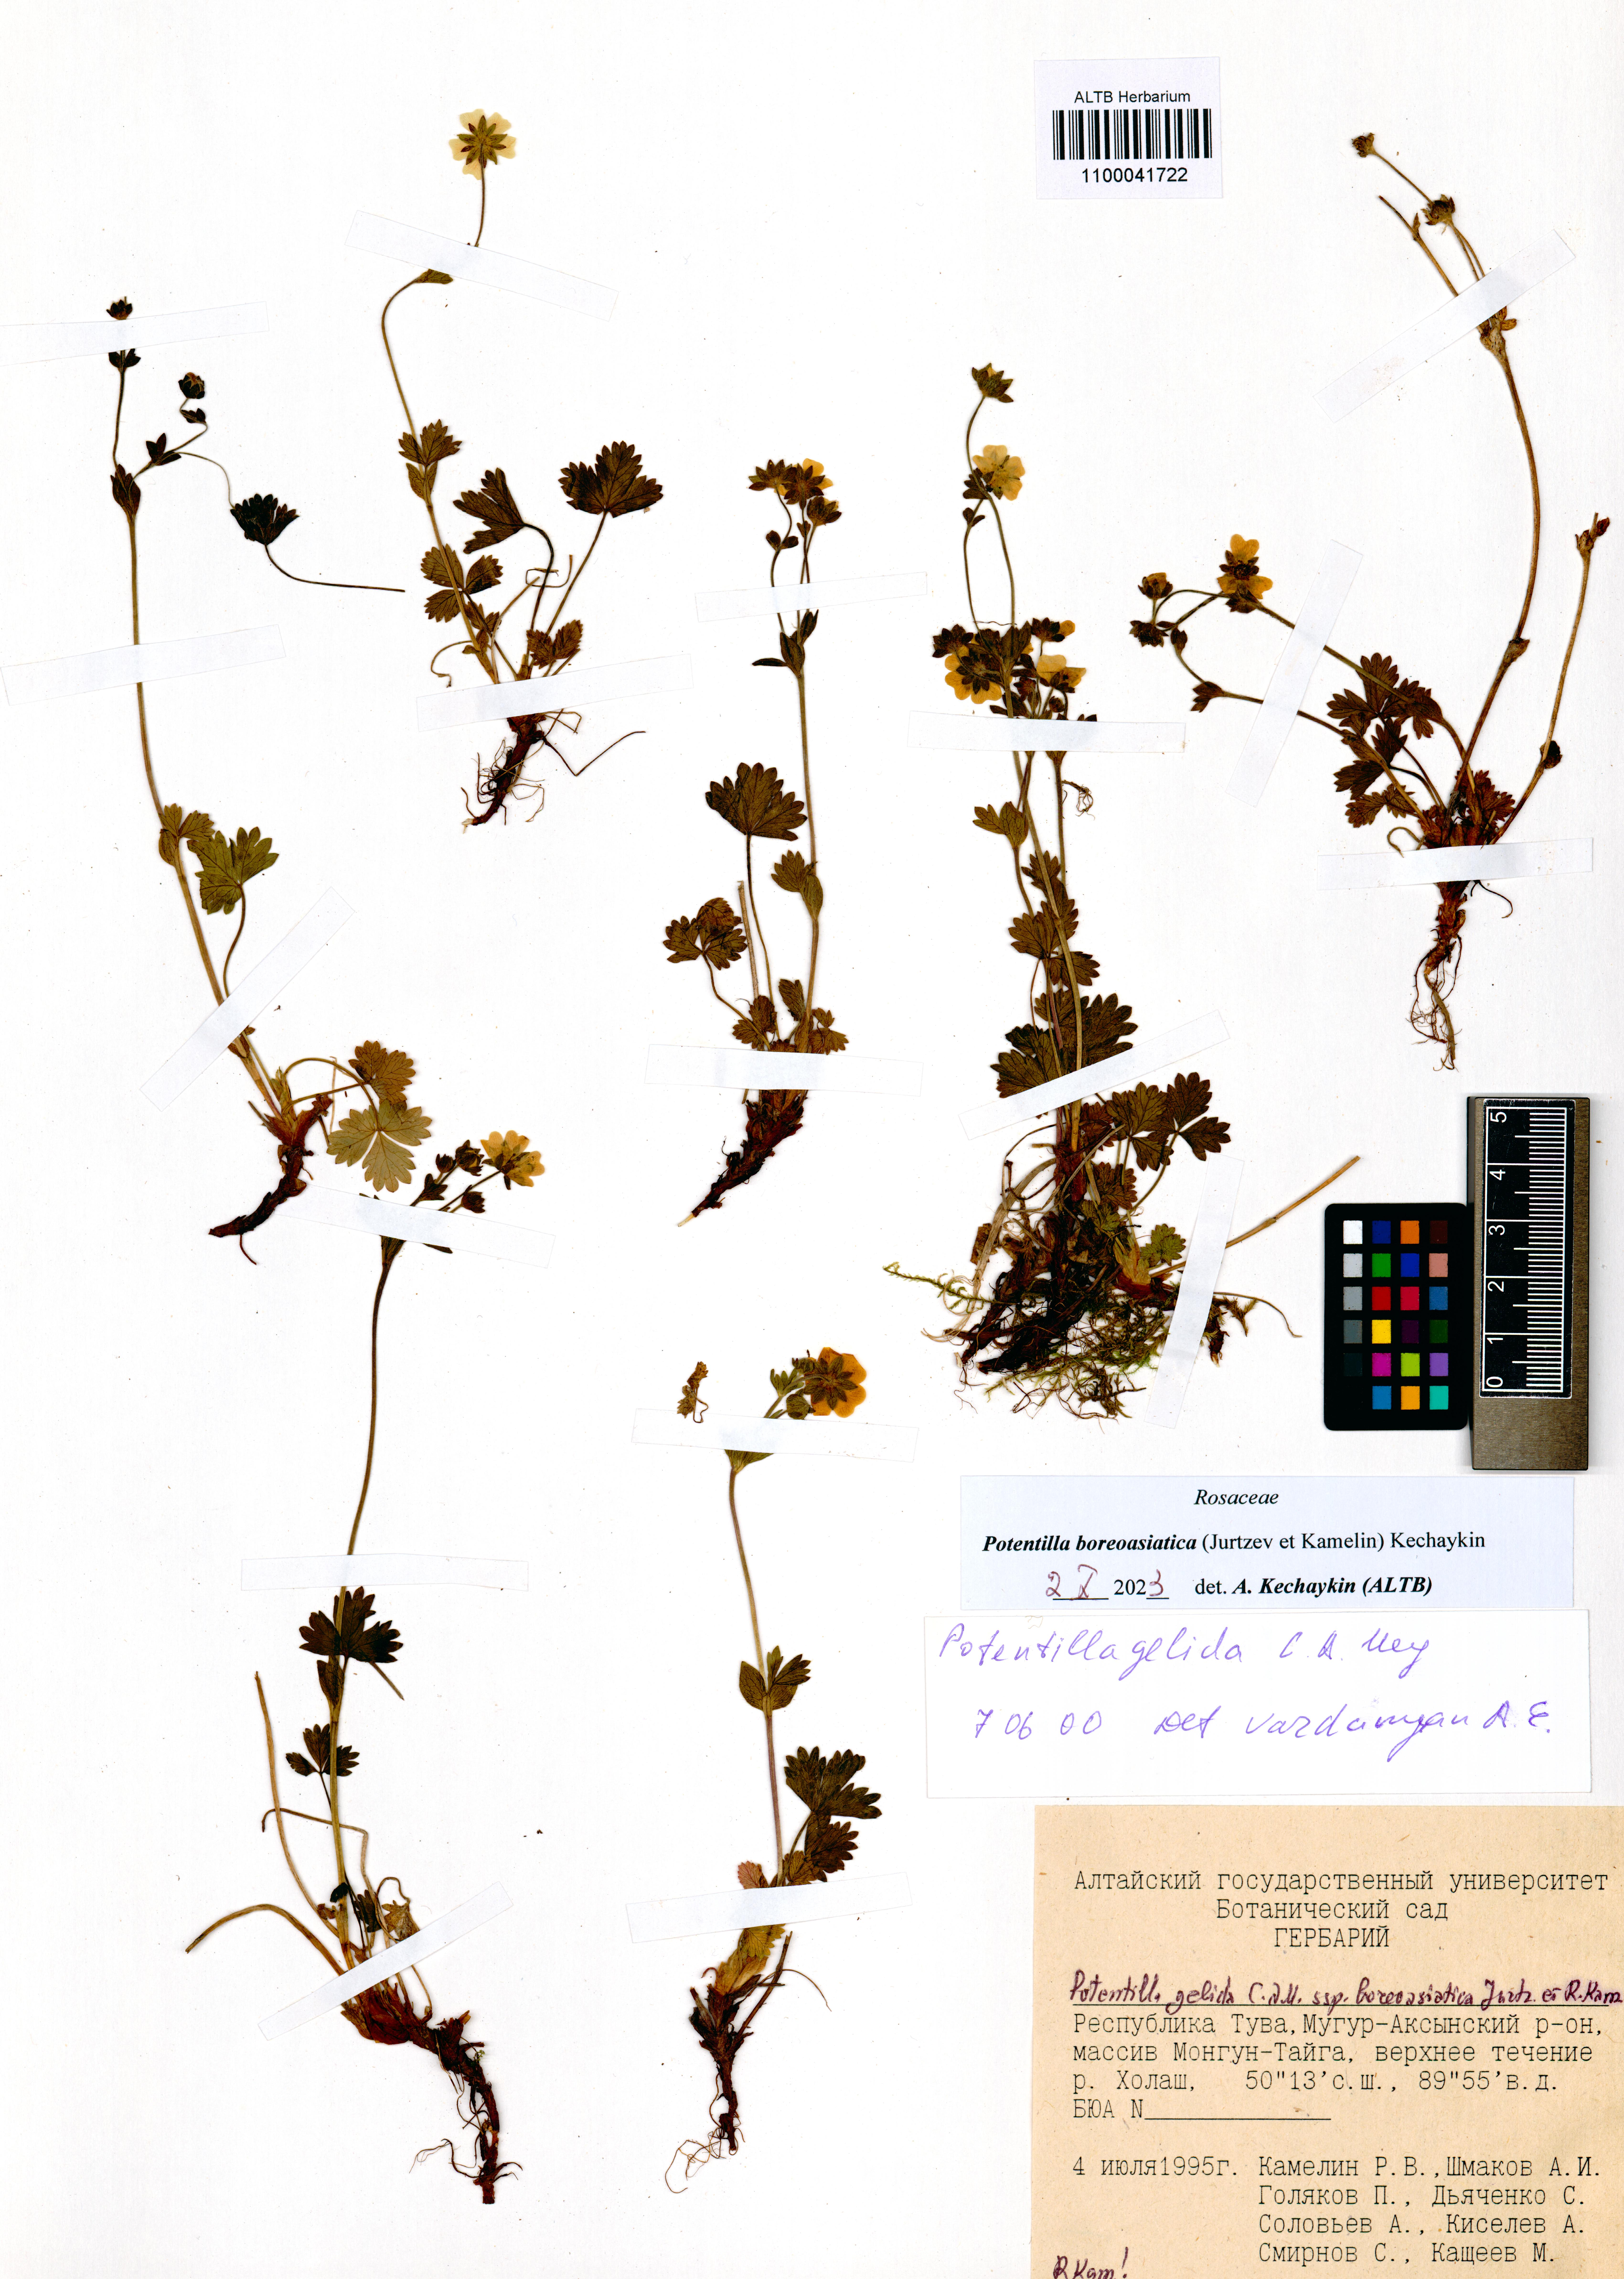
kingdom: Plantae
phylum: Tracheophyta
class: Magnoliopsida
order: Rosales
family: Rosaceae
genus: Potentilla
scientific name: Potentilla
